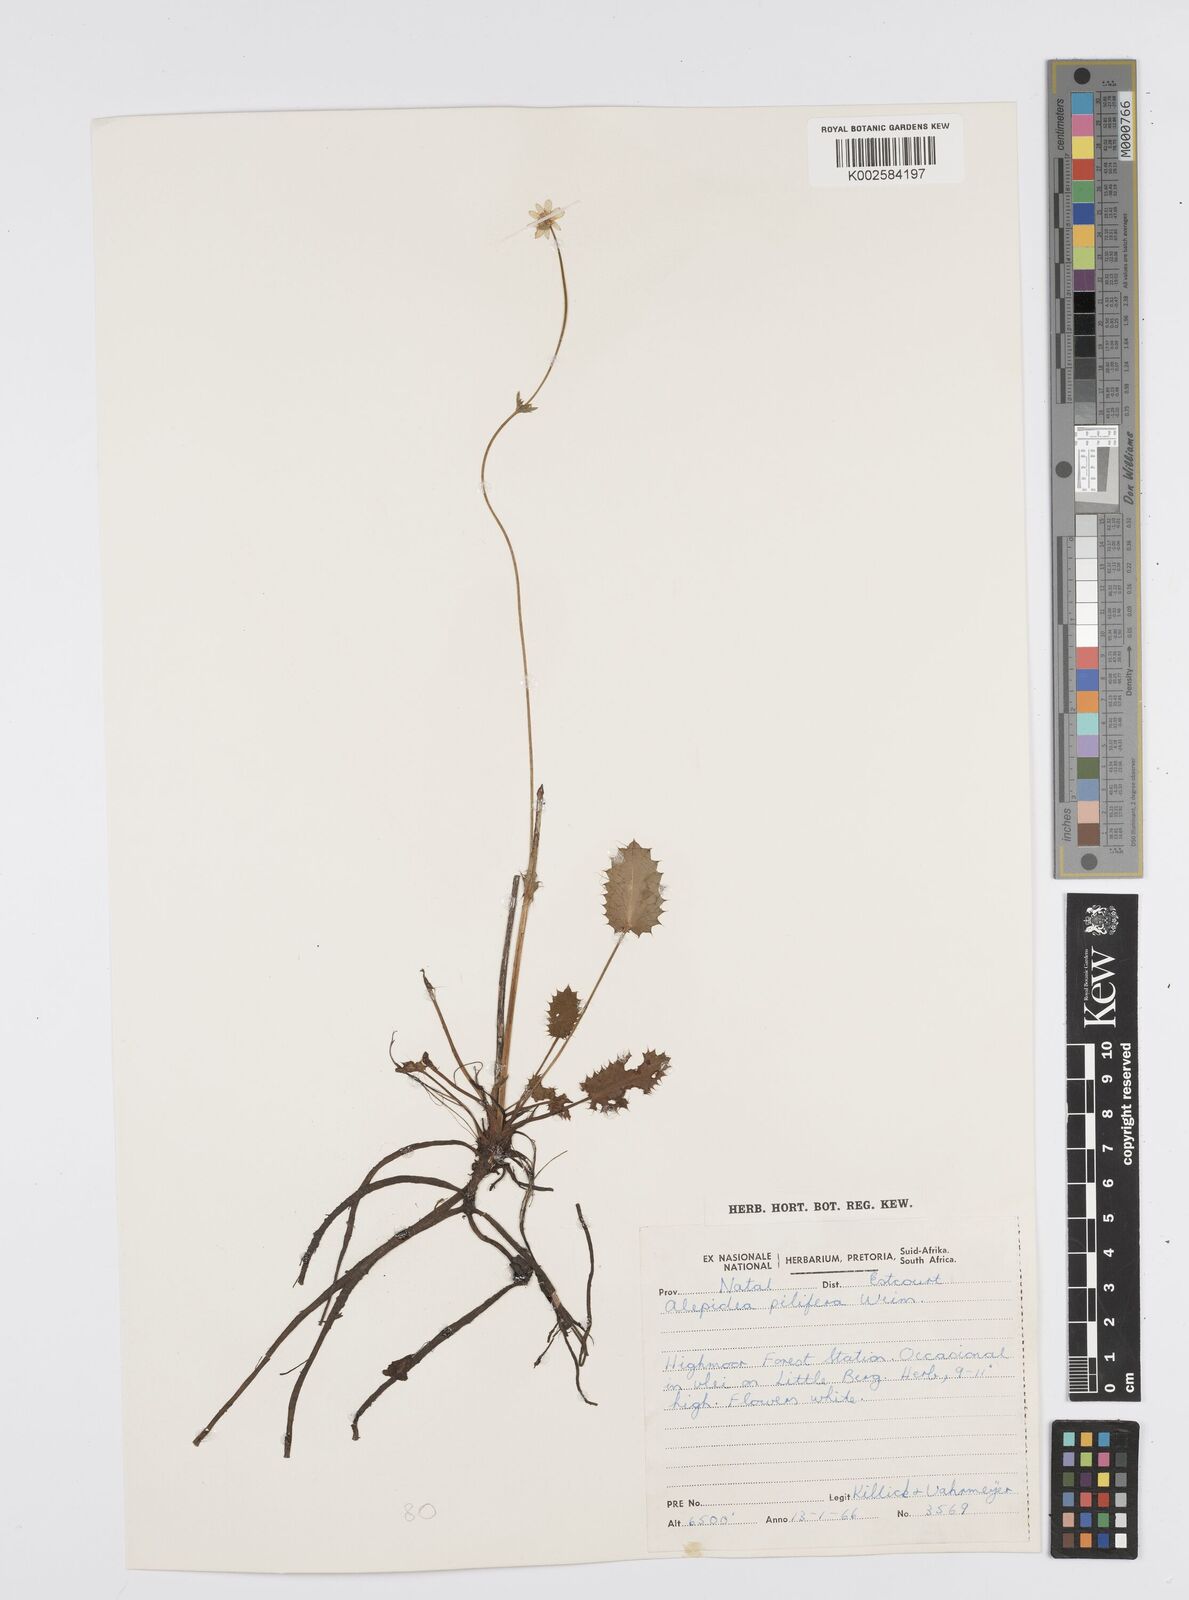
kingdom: Plantae
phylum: Tracheophyta
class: Magnoliopsida
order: Apiales
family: Apiaceae
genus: Alepidea
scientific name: Alepidea pilifera
